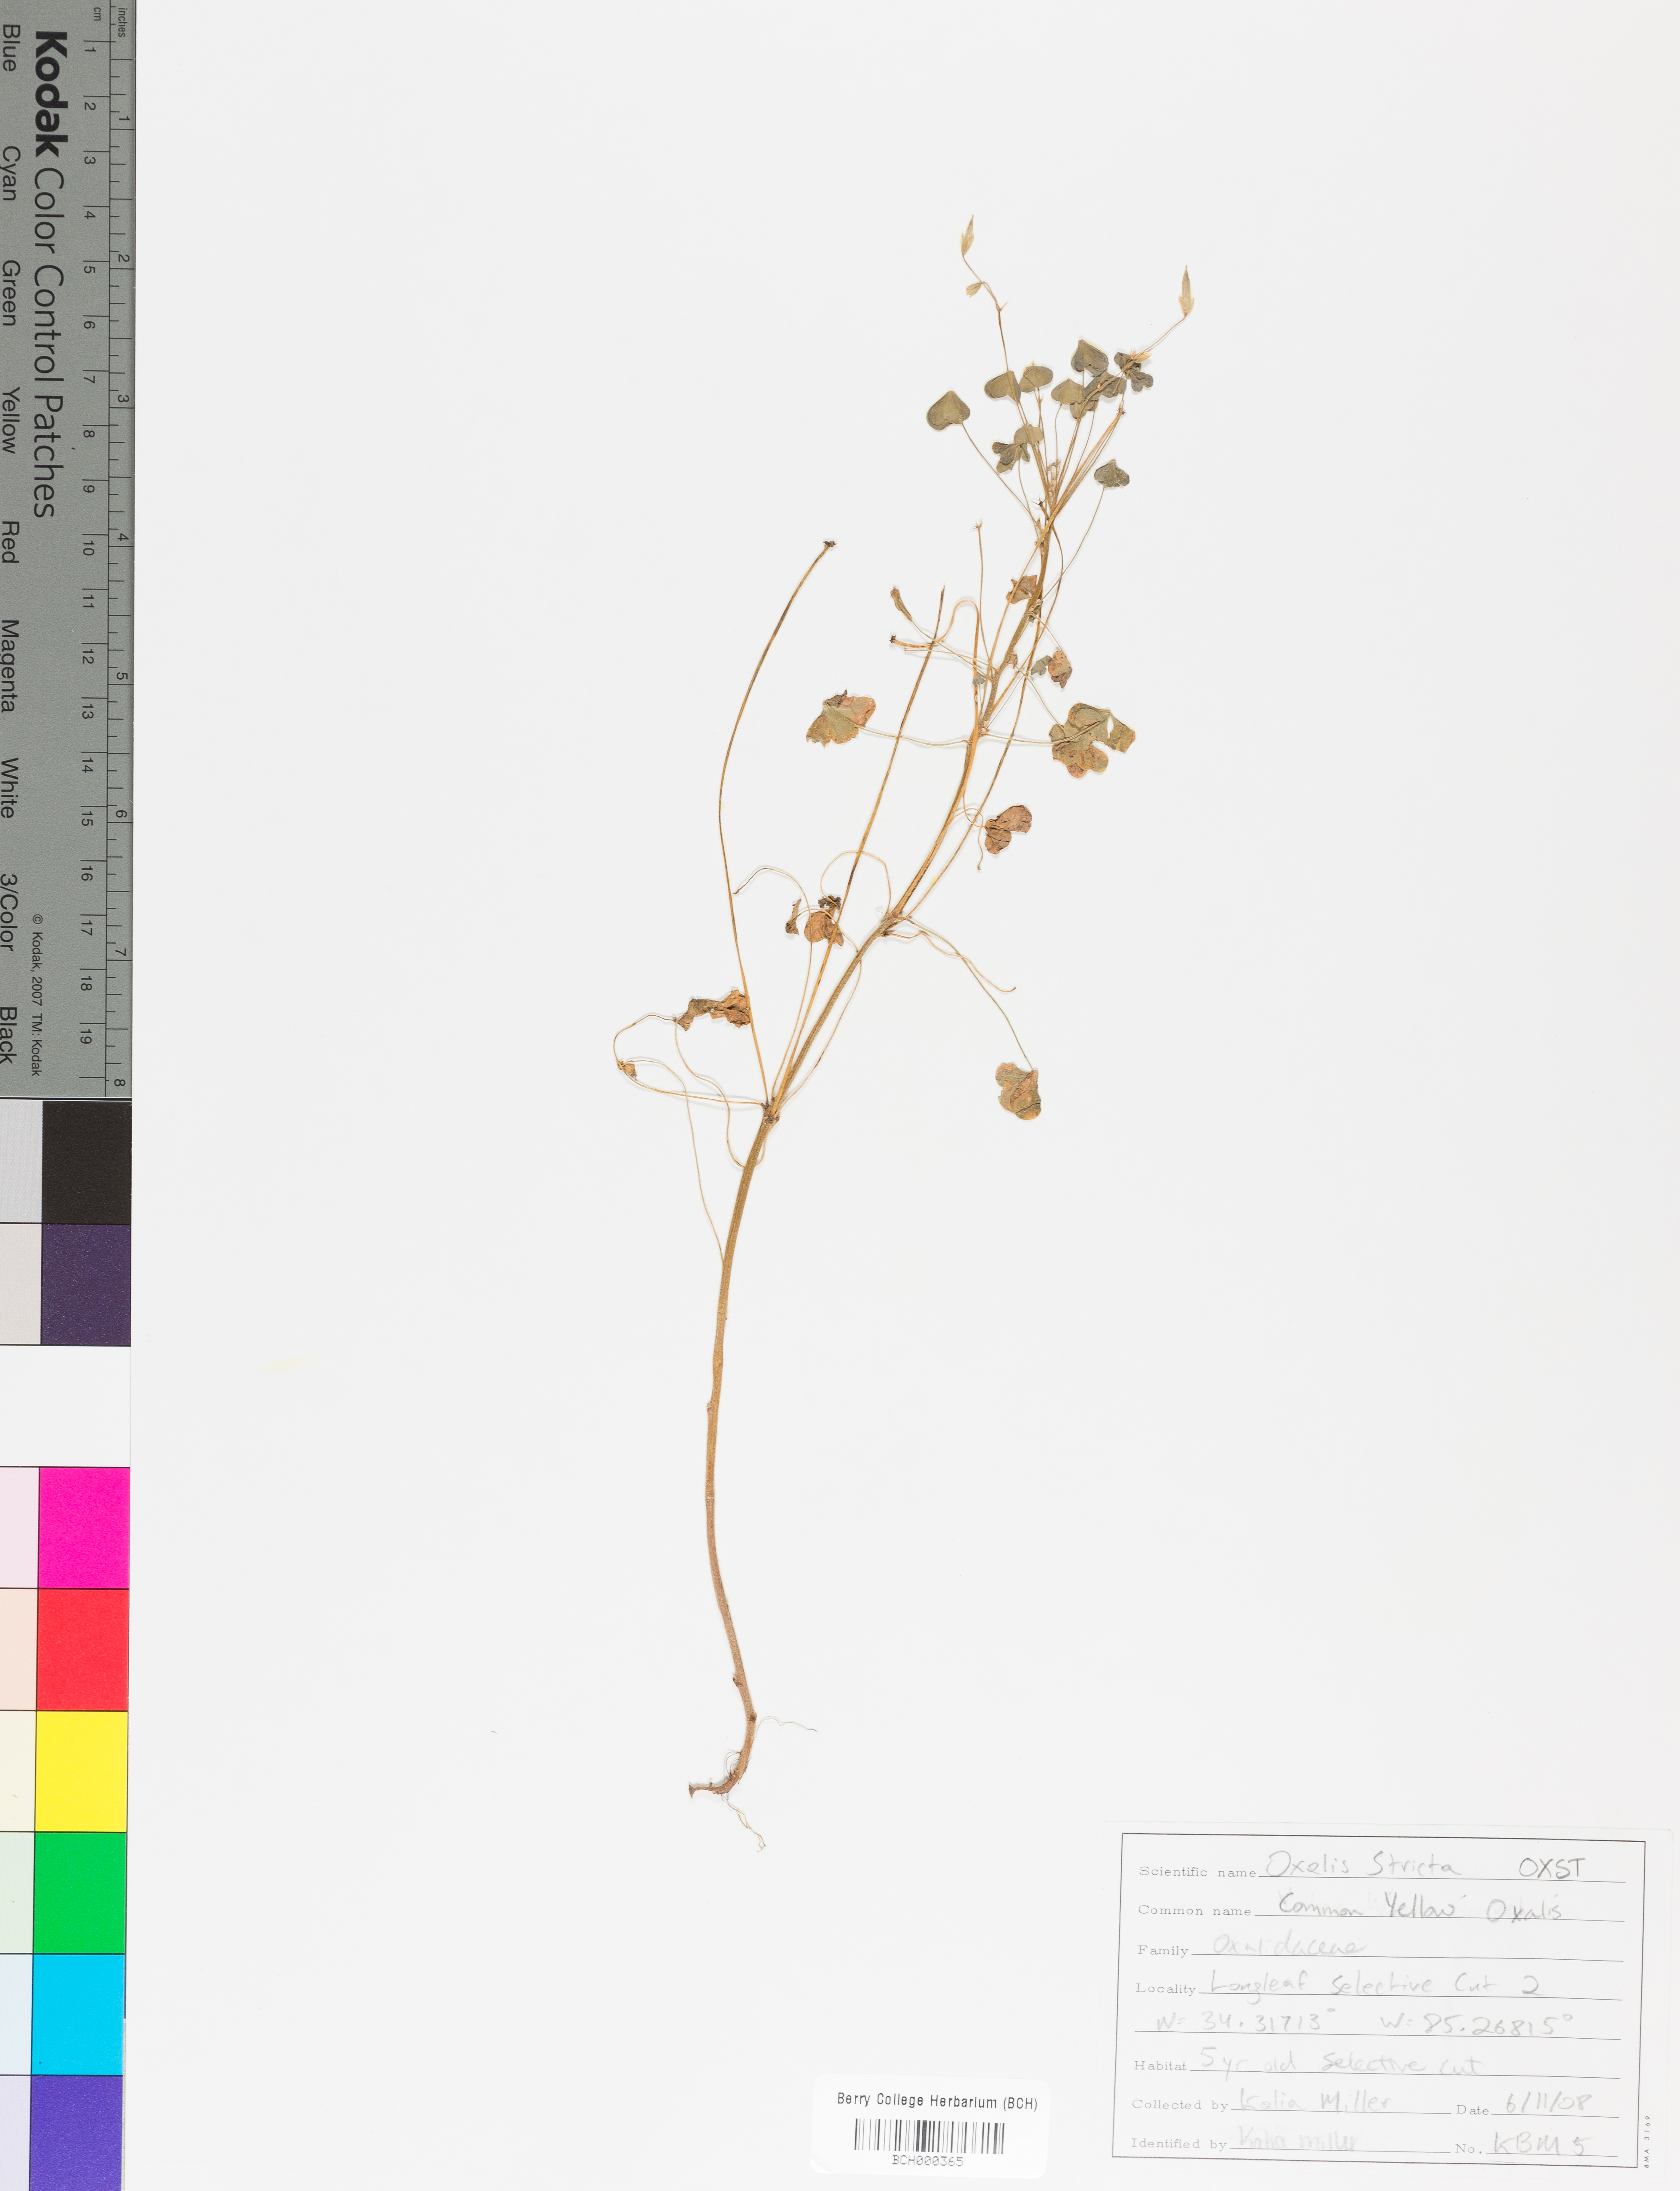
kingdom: Plantae
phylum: Tracheophyta
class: Magnoliopsida
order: Oxalidales
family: Oxalidaceae
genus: Oxalis
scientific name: Oxalis stricta
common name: Upright yellow-sorrel
